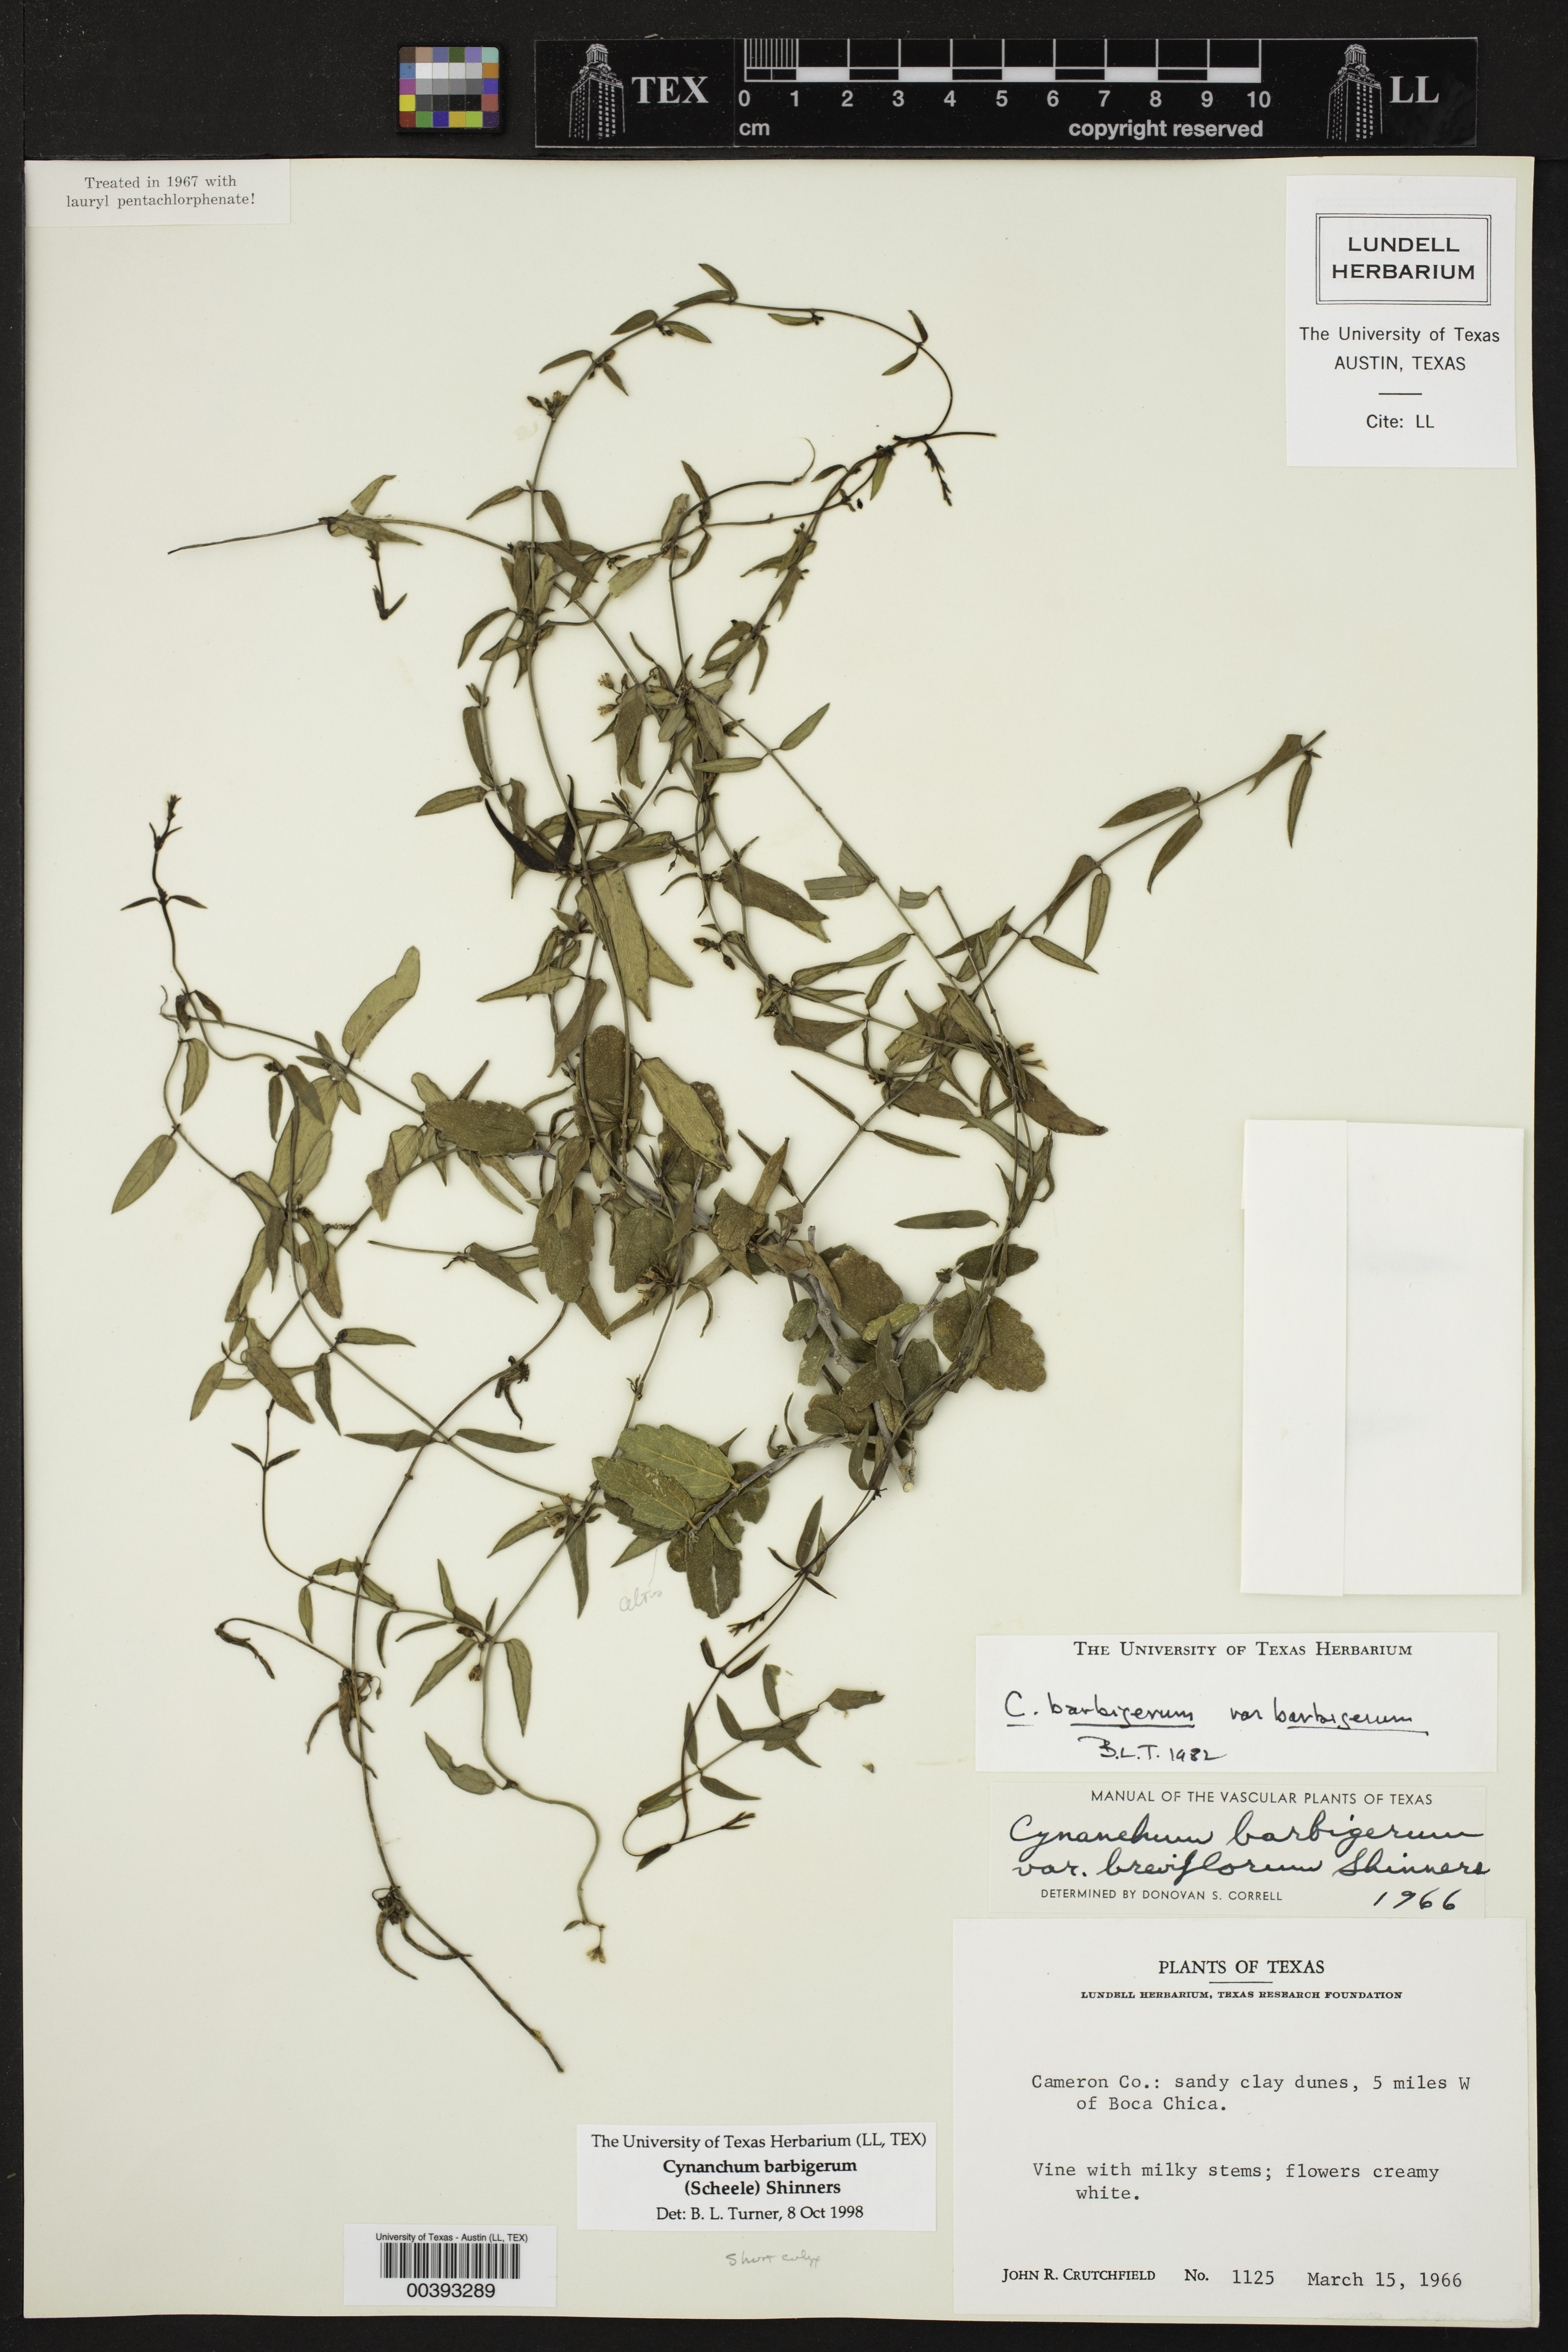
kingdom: Plantae
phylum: Tracheophyta
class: Magnoliopsida
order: Gentianales
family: Apocynaceae
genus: Metastelma
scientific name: Metastelma barbigerum
